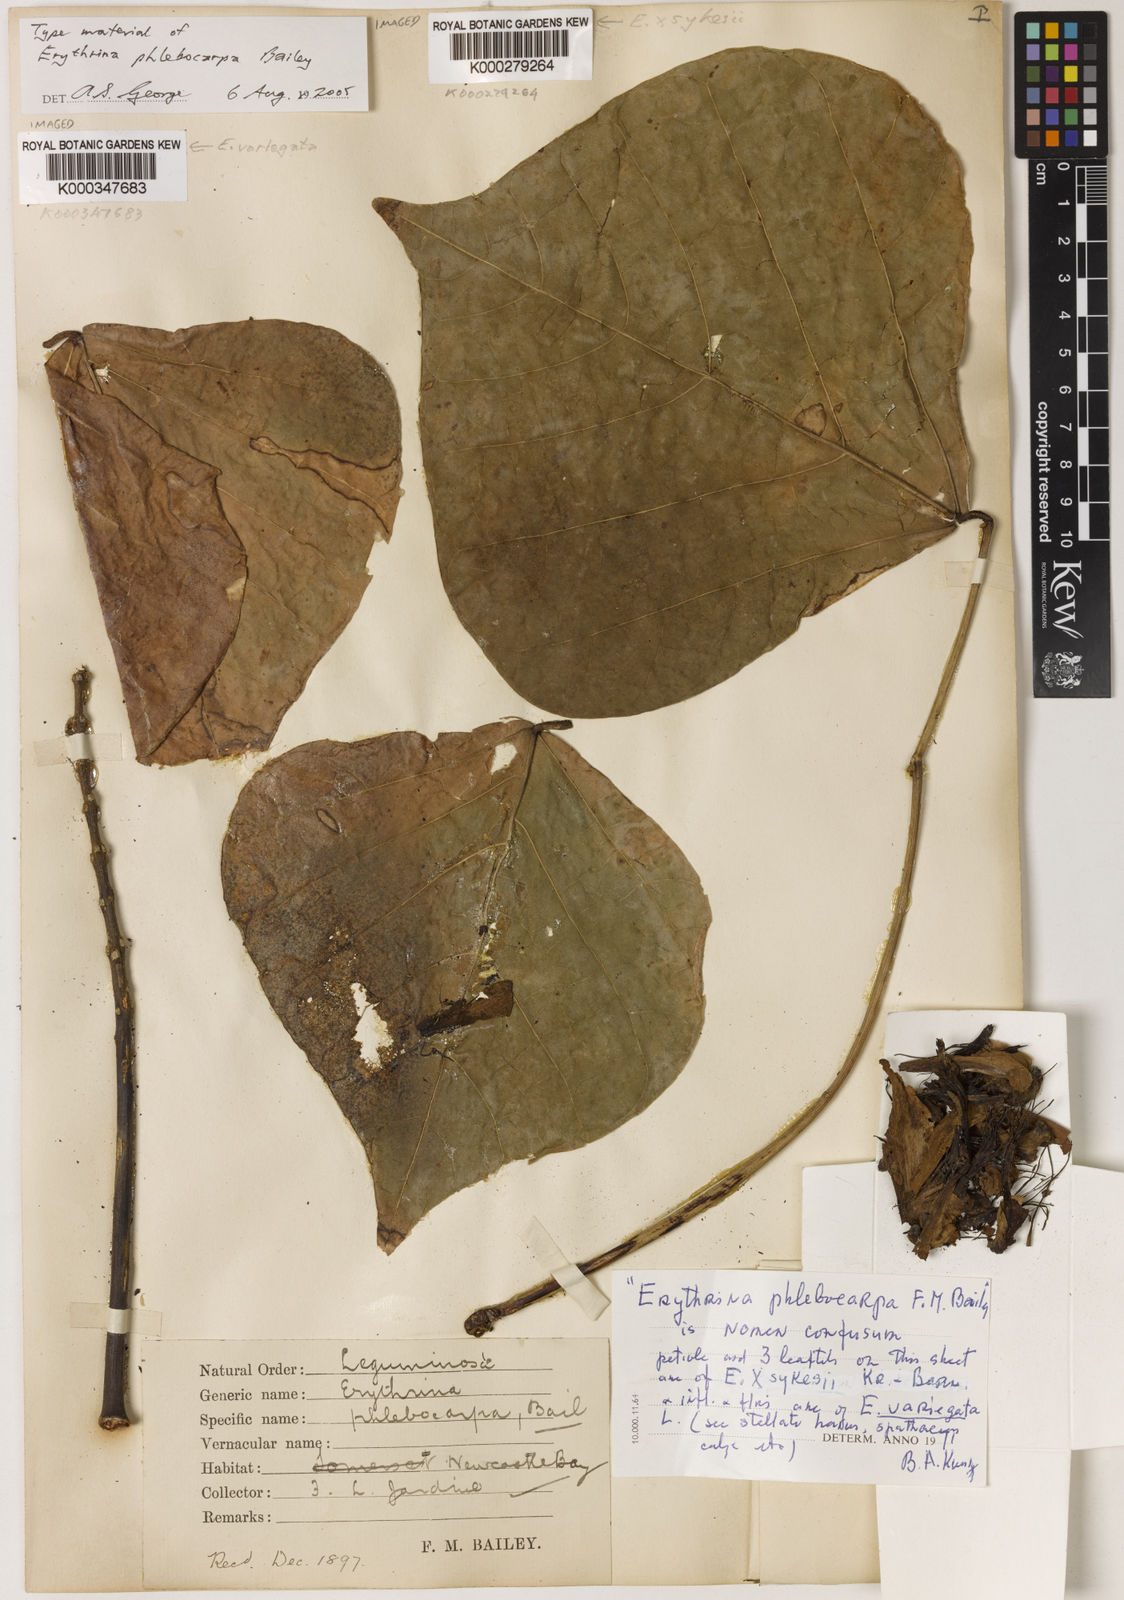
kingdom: Plantae
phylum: Tracheophyta
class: Magnoliopsida
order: Fabales
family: Fabaceae
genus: Erythrina
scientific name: Erythrina variegata
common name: Indian coral tree
